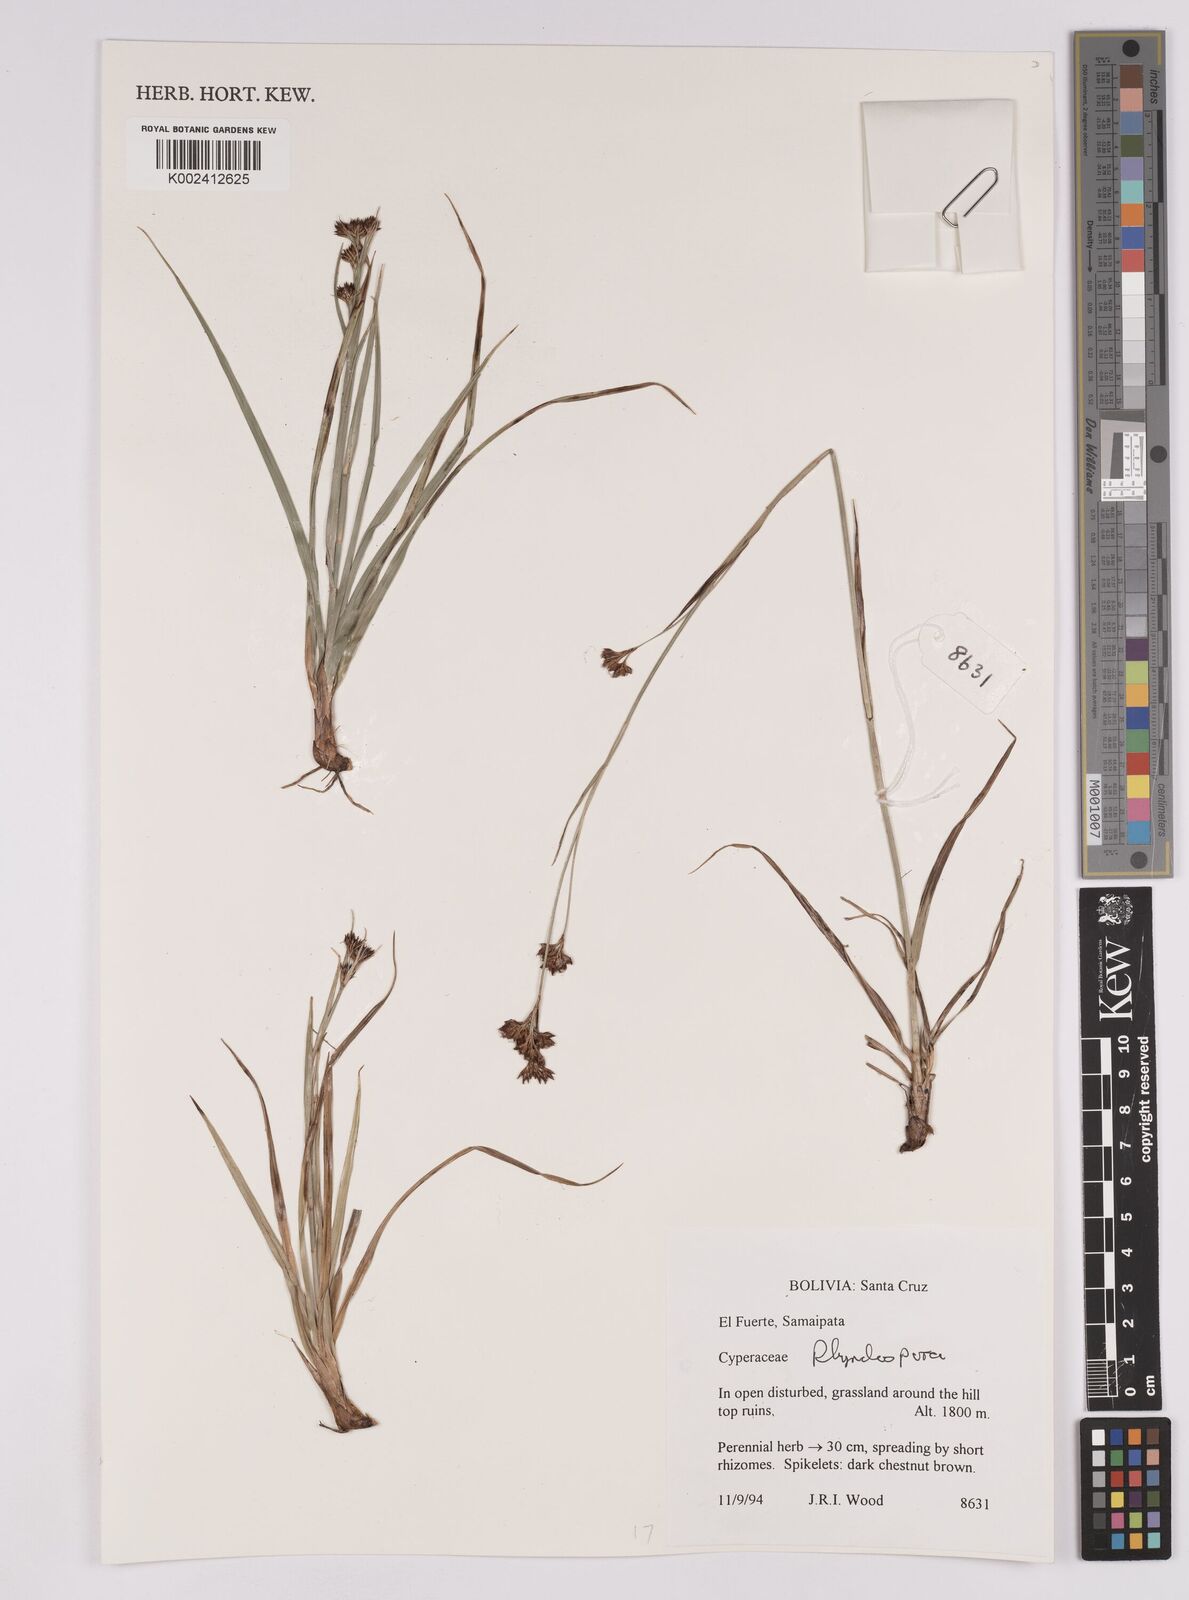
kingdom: Plantae
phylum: Tracheophyta
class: Liliopsida
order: Poales
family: Cyperaceae
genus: Rhynchospora
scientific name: Rhynchospora
